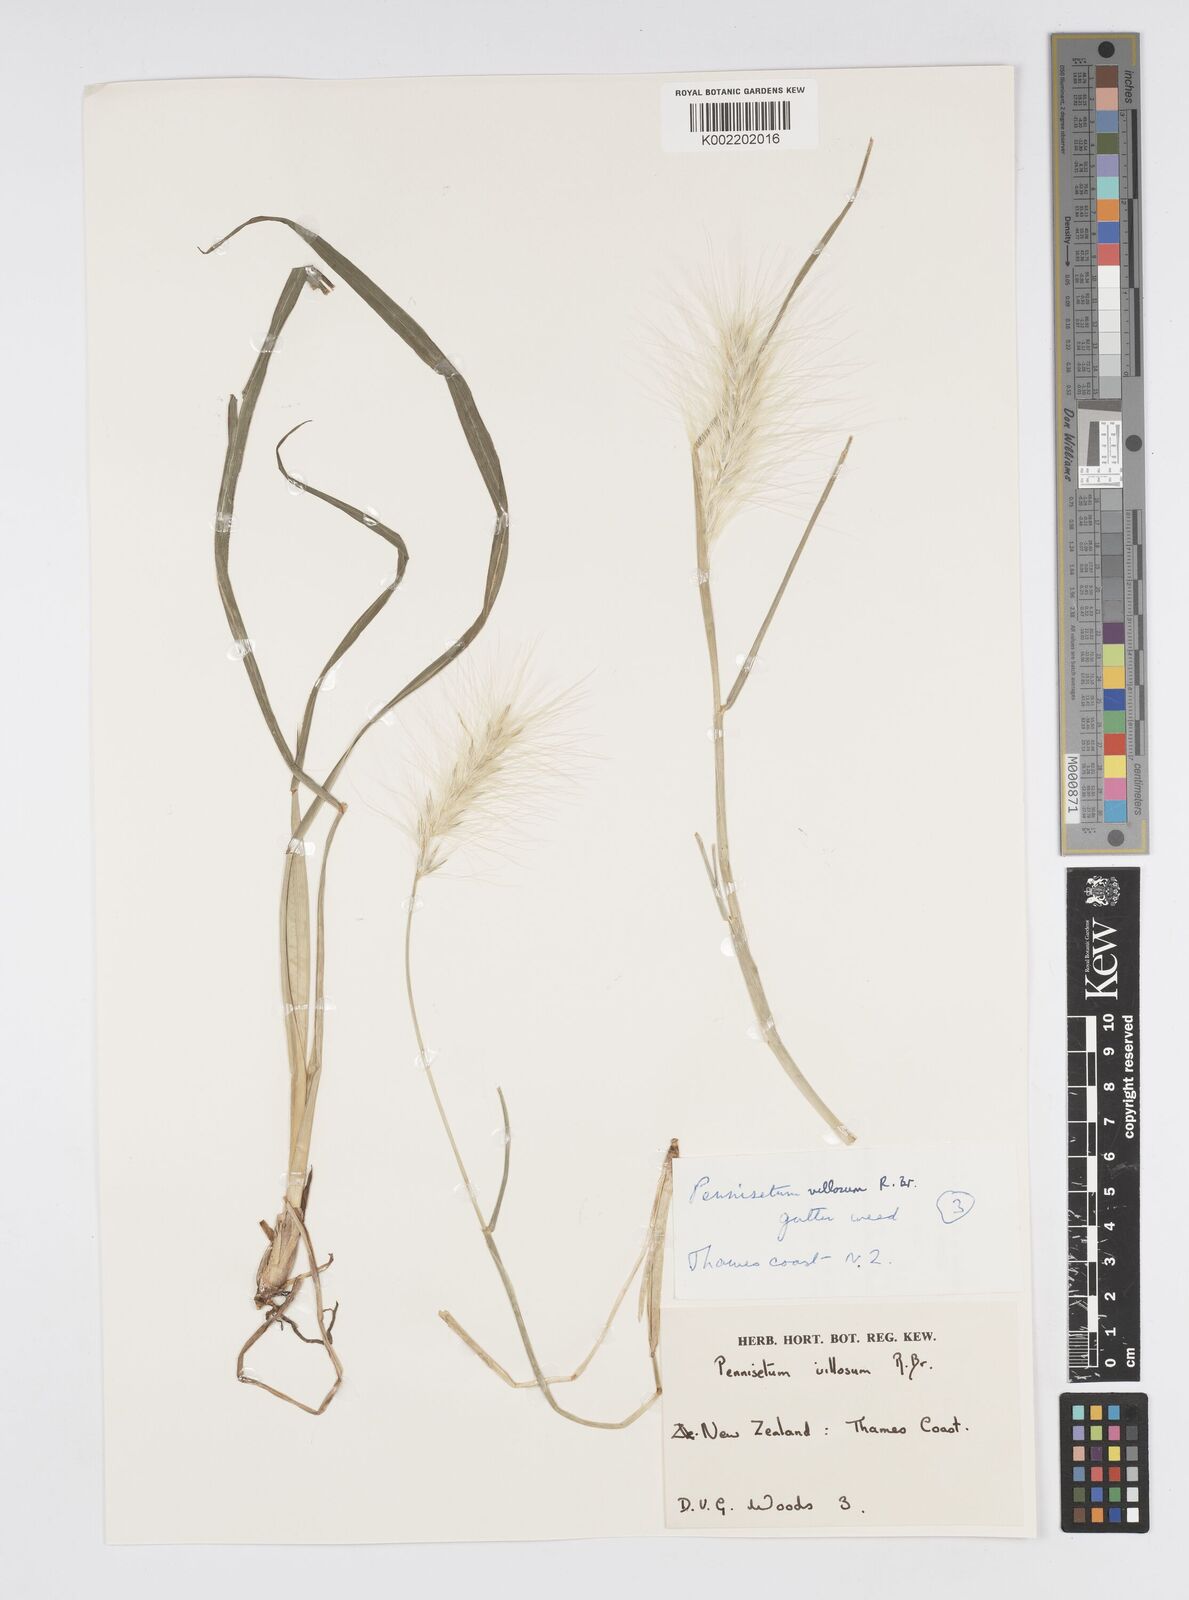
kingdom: Plantae
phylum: Tracheophyta
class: Liliopsida
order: Poales
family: Poaceae
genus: Cenchrus
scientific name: Cenchrus longisetus
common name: Feathertop
